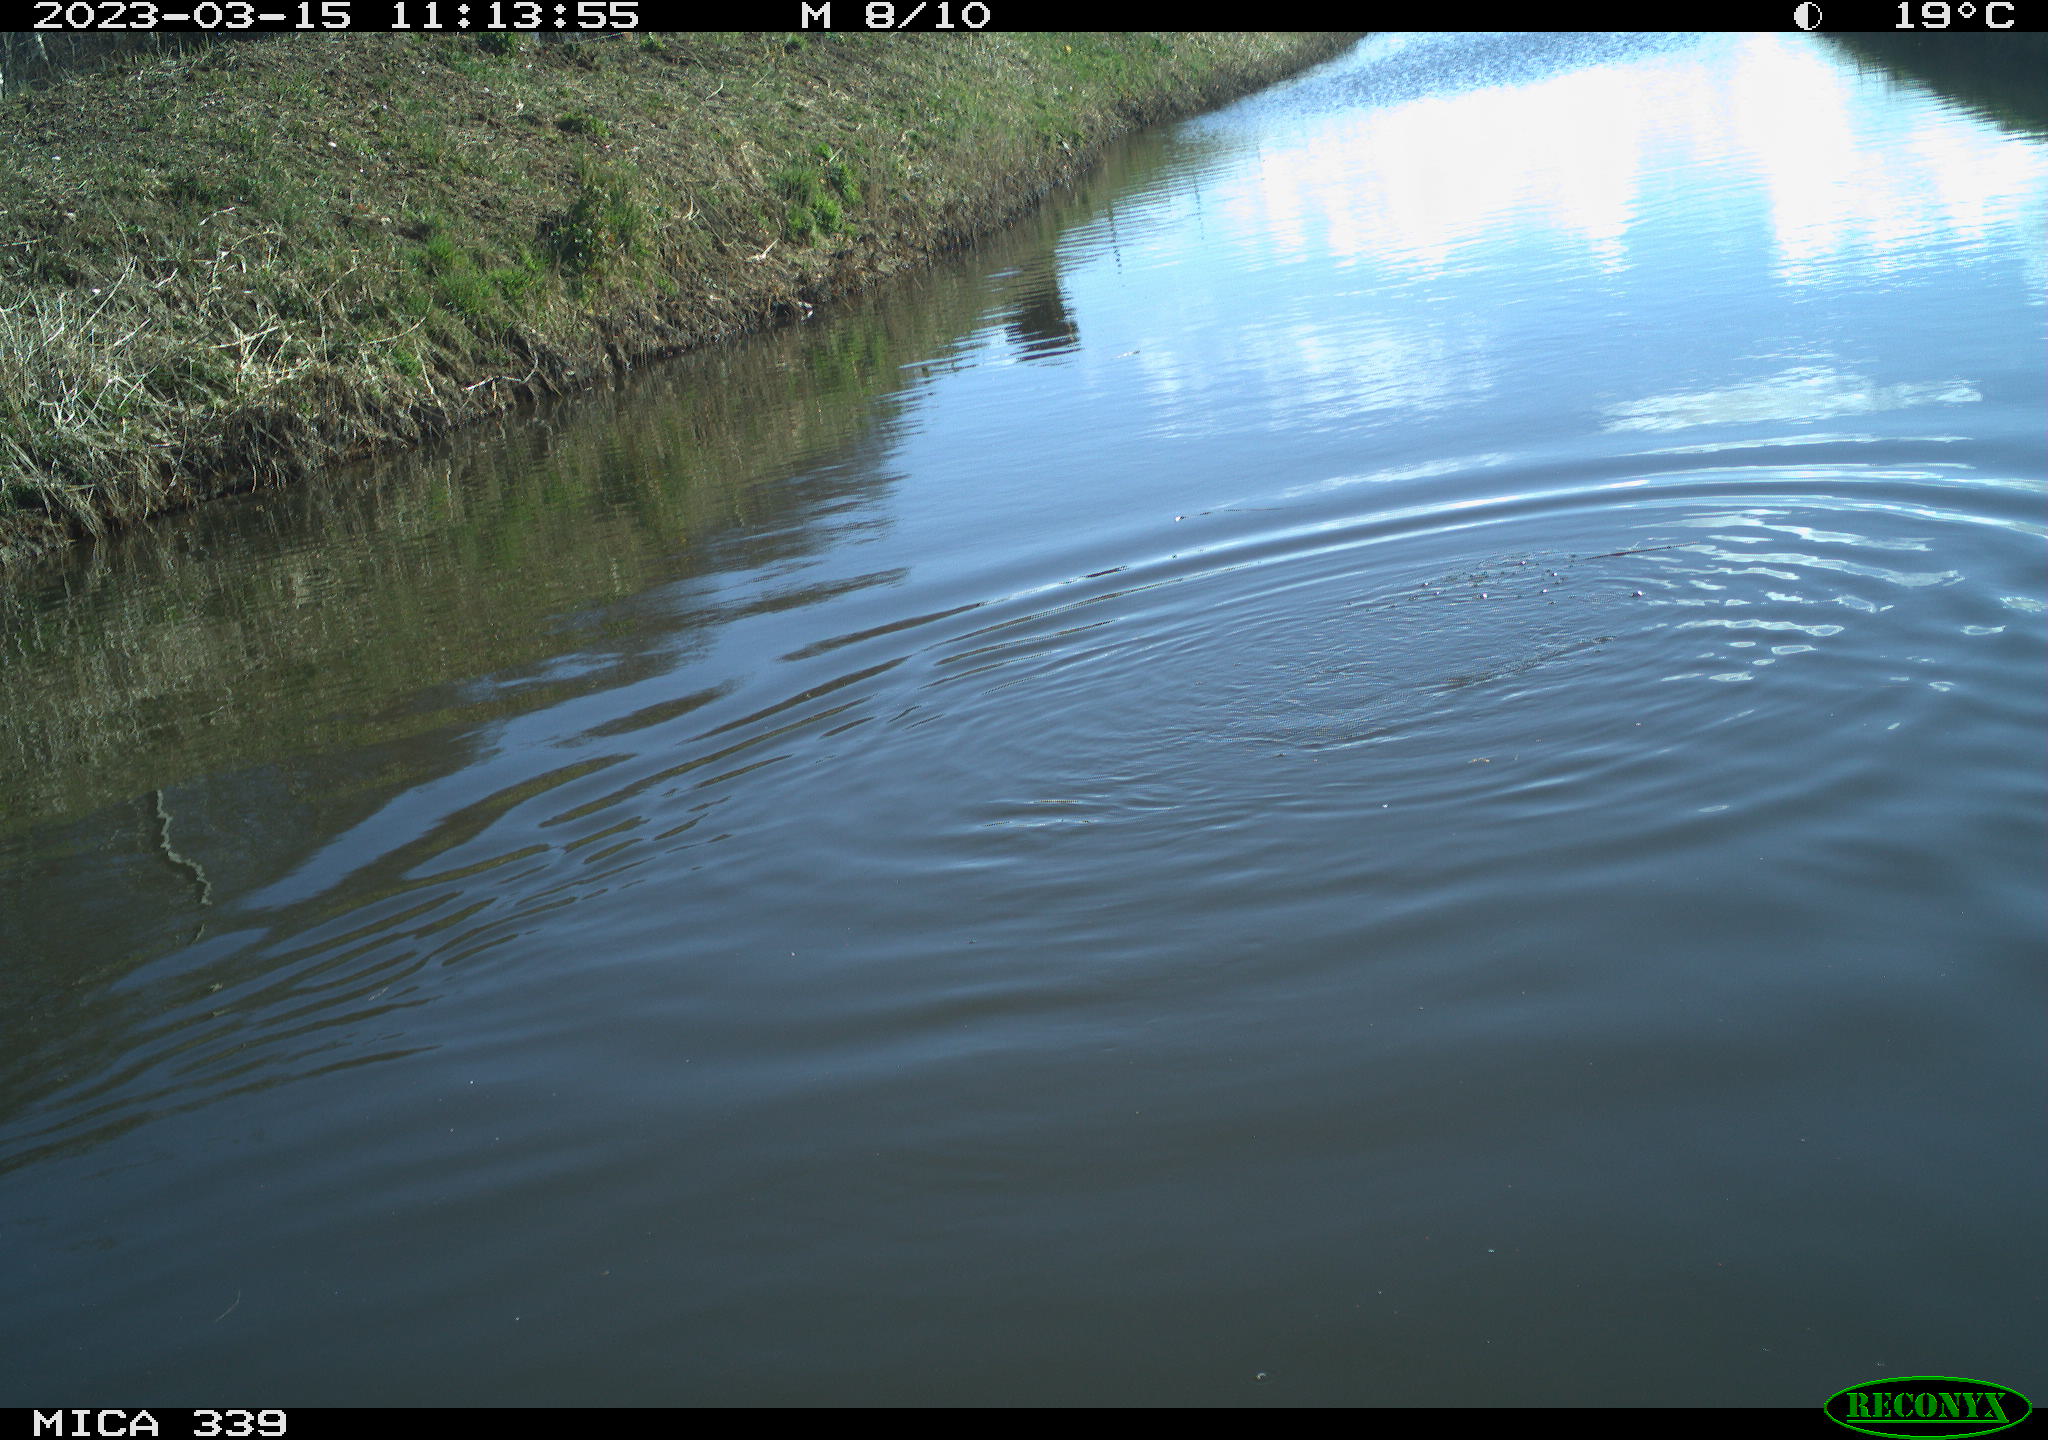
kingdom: Animalia
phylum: Chordata
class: Aves
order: Suliformes
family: Phalacrocoracidae
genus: Phalacrocorax
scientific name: Phalacrocorax carbo
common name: Great cormorant
